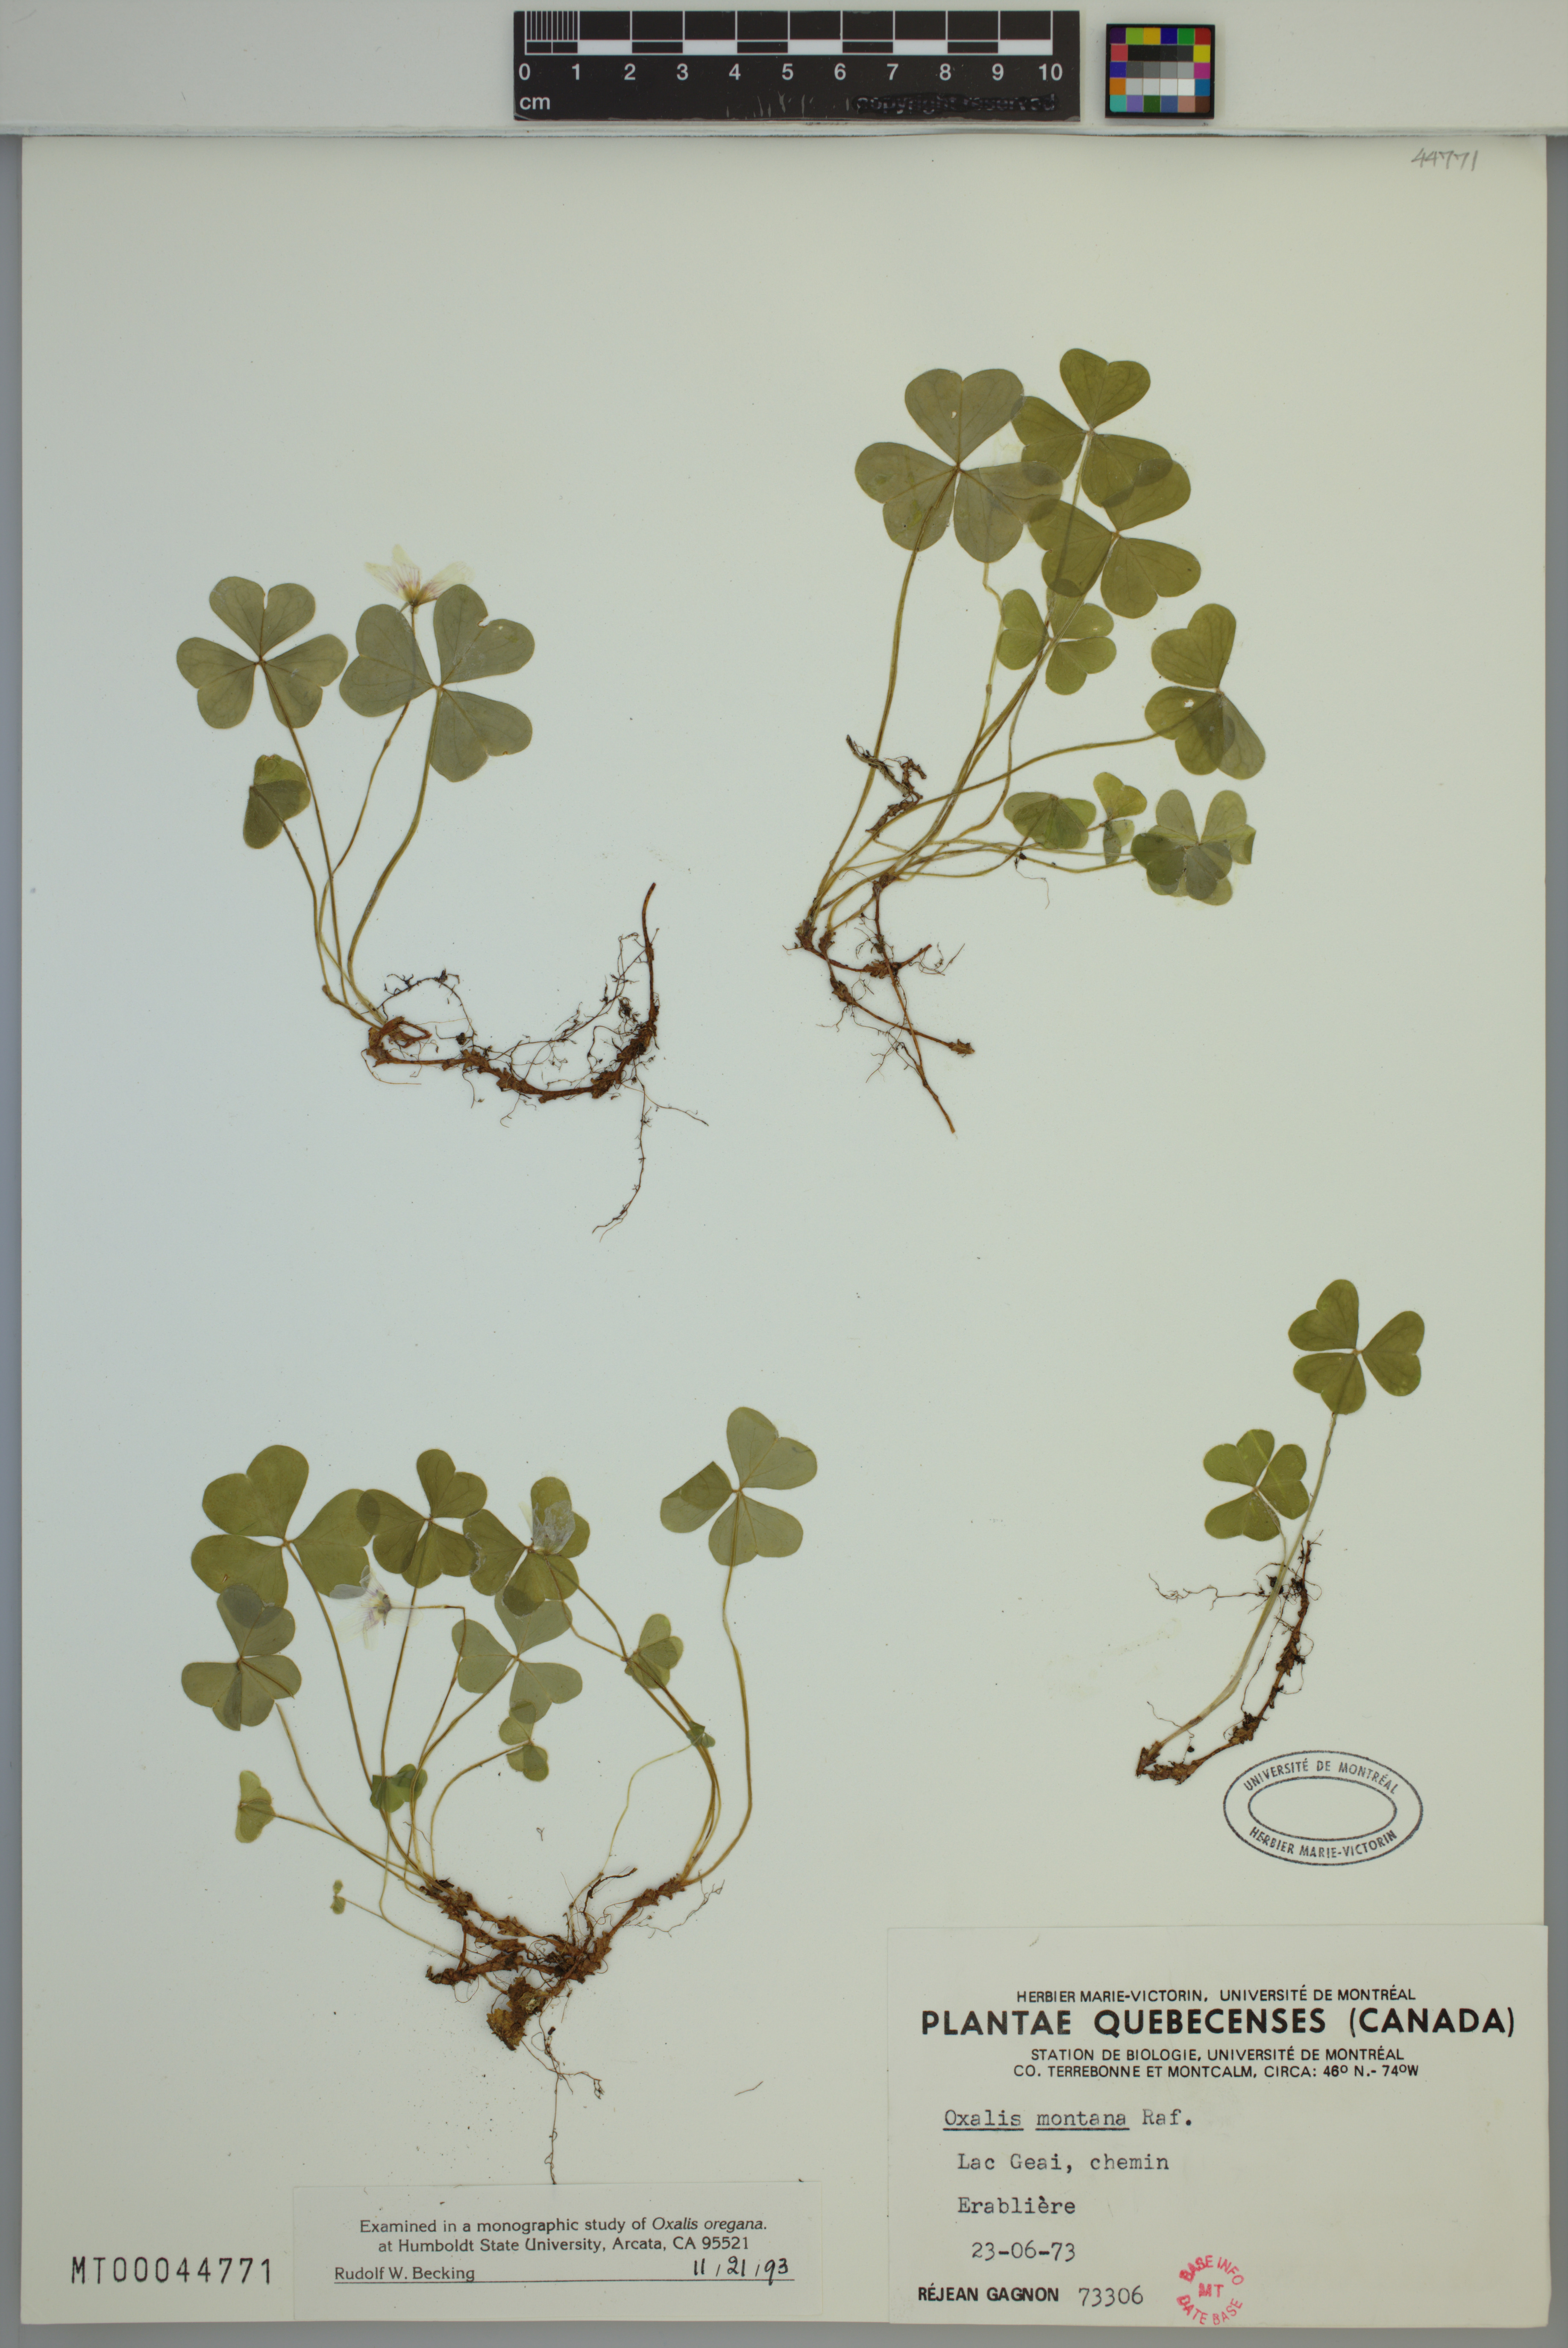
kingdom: Plantae
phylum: Tracheophyta
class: Magnoliopsida
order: Oxalidales
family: Oxalidaceae
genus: Oxalis
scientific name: Oxalis montana
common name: American wood-sorrel
